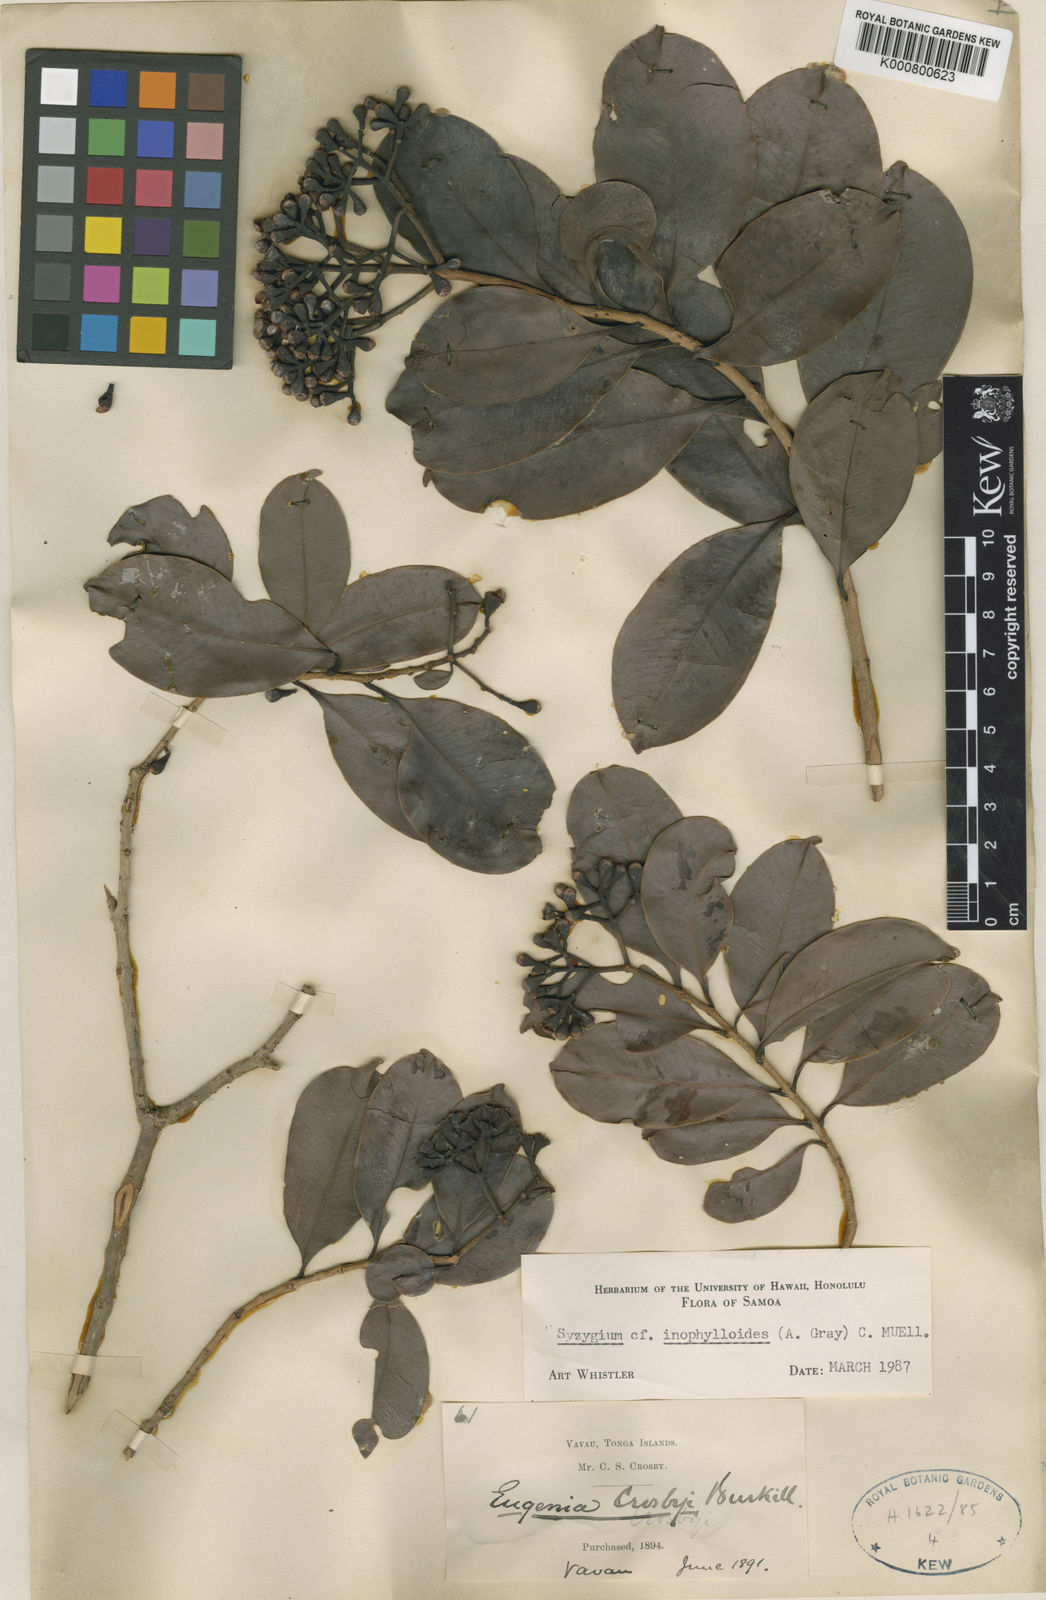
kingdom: Plantae
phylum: Tracheophyta
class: Magnoliopsida
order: Myrtales
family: Myrtaceae
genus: Syzygium
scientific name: Syzygium
